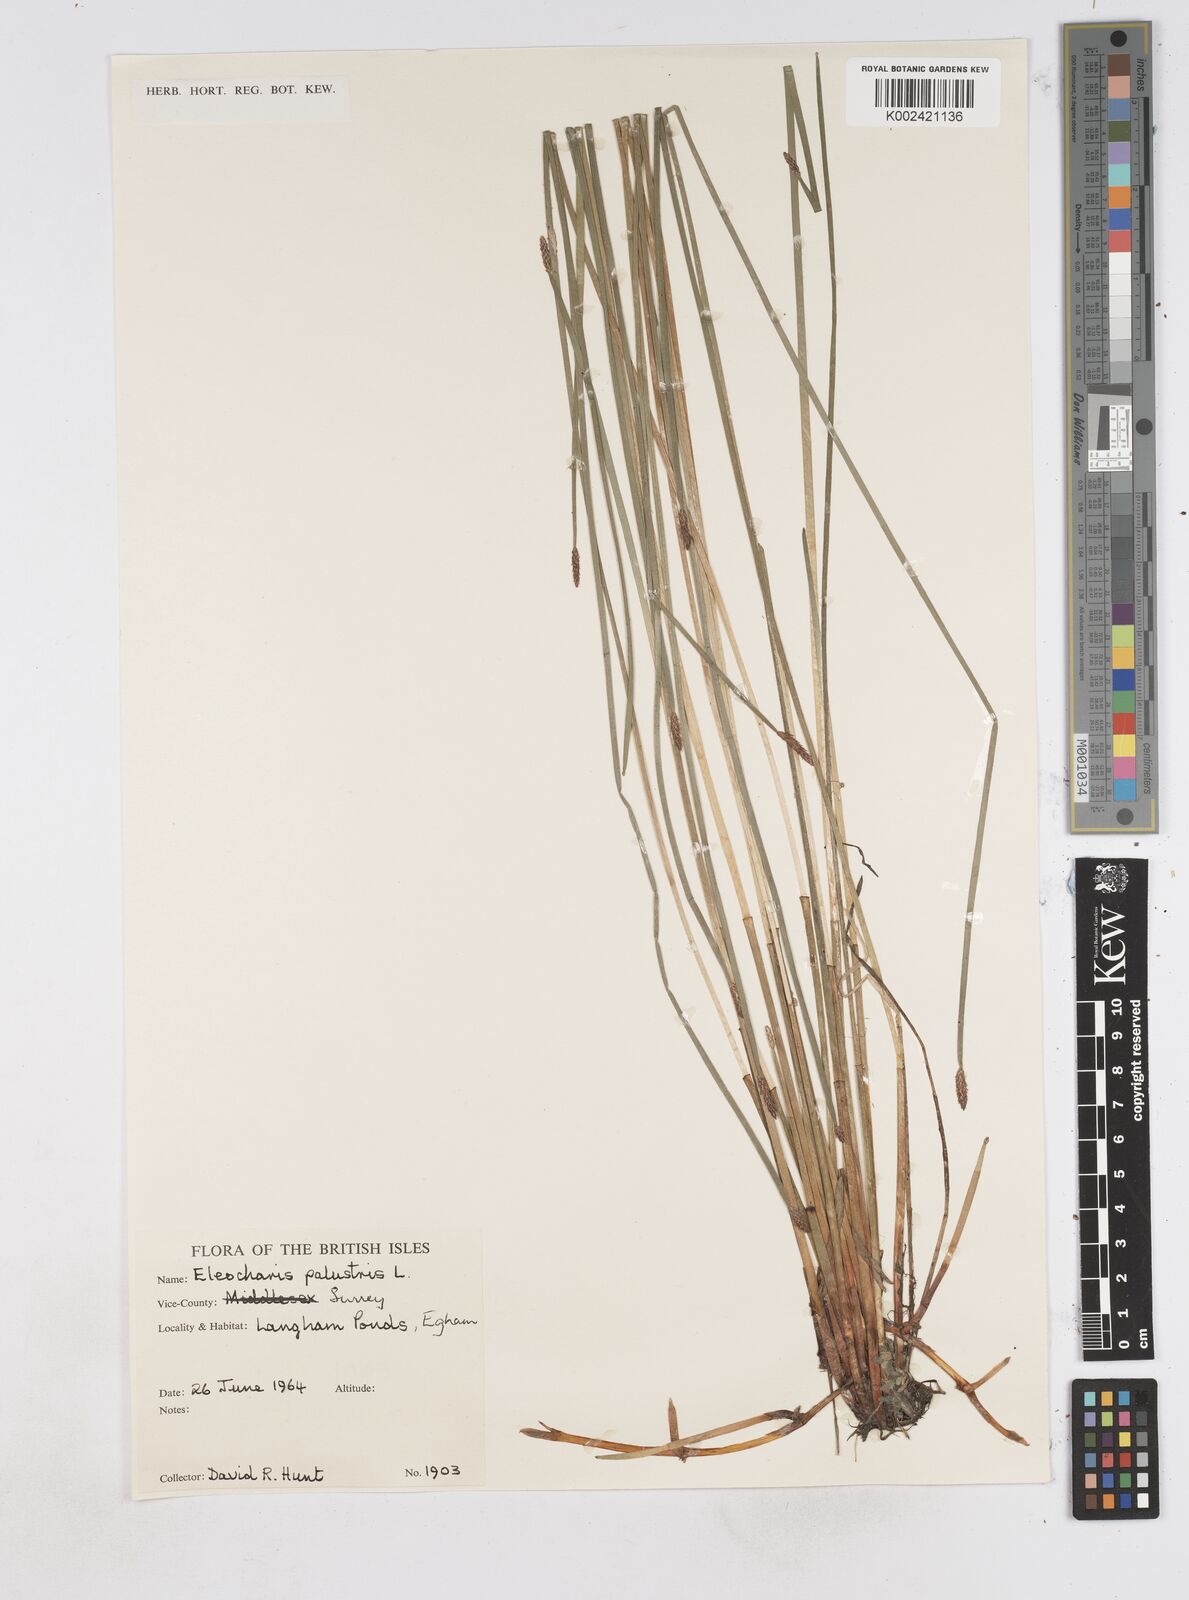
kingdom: Plantae
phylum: Tracheophyta
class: Liliopsida
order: Poales
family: Cyperaceae
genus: Eleocharis
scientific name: Eleocharis palustris
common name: Common spike-rush
